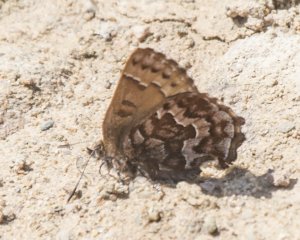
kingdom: Animalia
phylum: Arthropoda
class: Insecta
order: Lepidoptera
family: Lycaenidae
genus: Incisalia
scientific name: Incisalia niphon
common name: Eastern Pine Elfin
